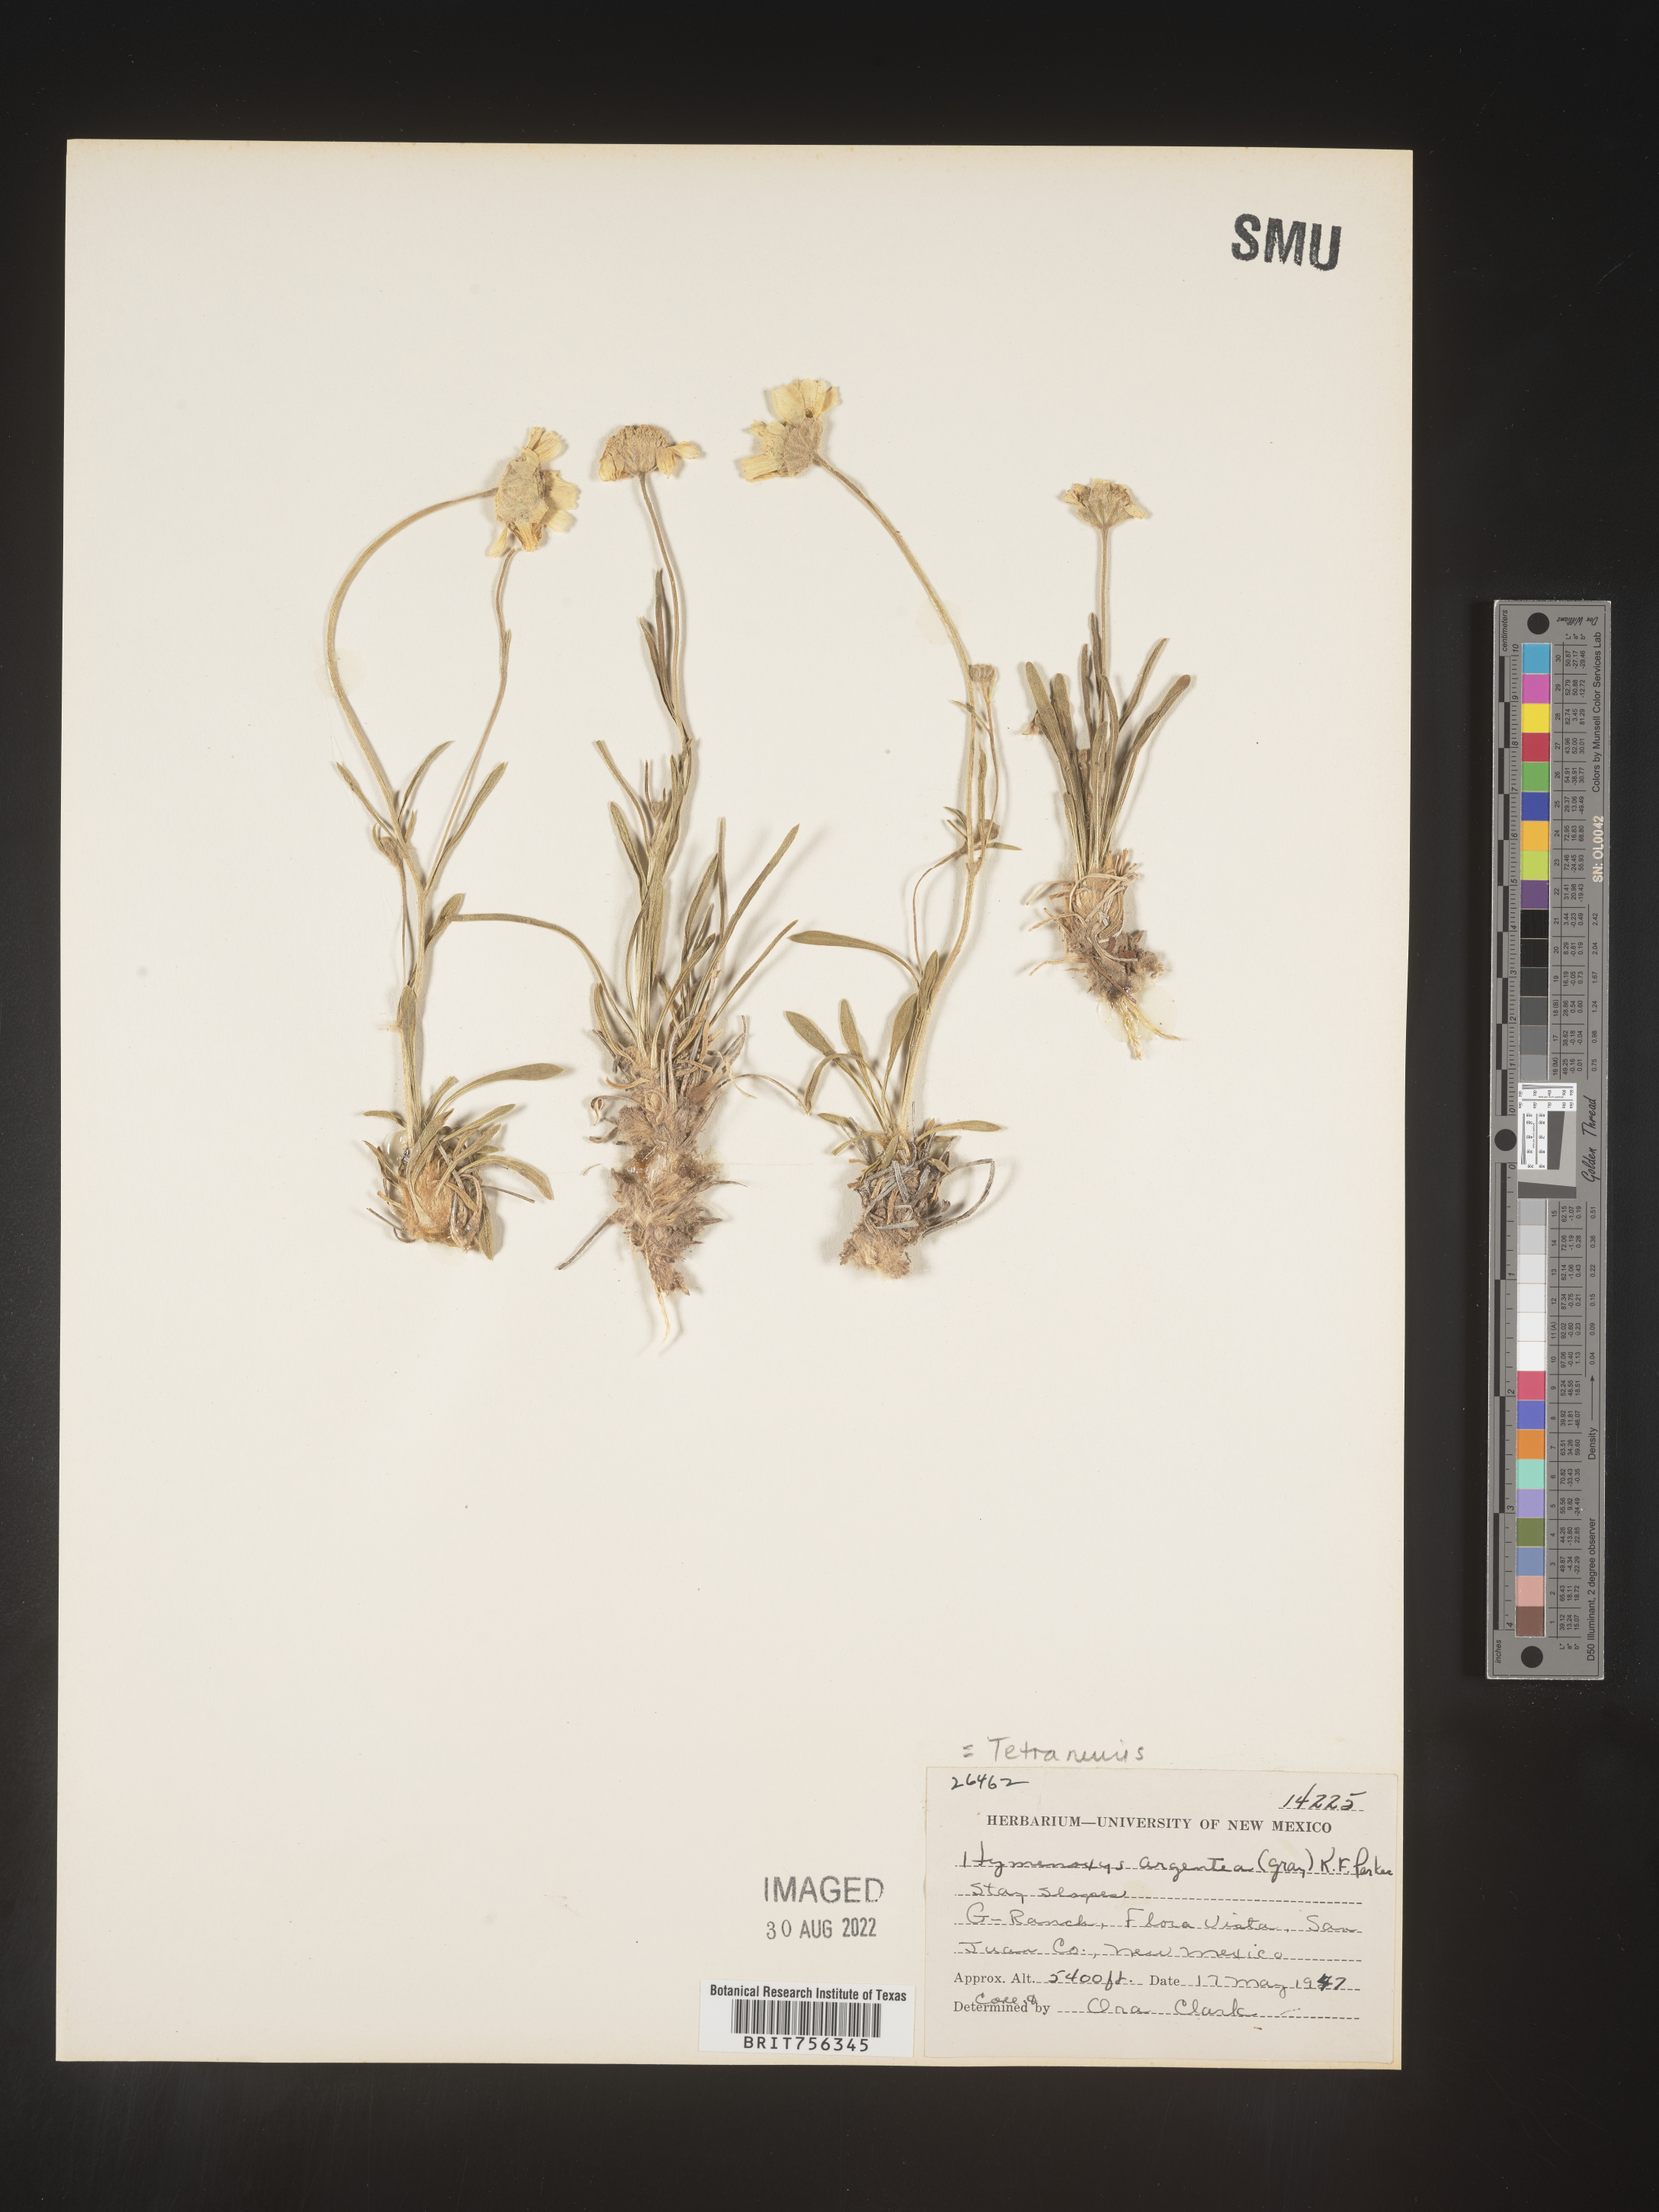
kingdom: Plantae
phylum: Tracheophyta
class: Magnoliopsida
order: Asterales
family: Asteraceae
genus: Tetraneuris
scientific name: Tetraneuris argentea
